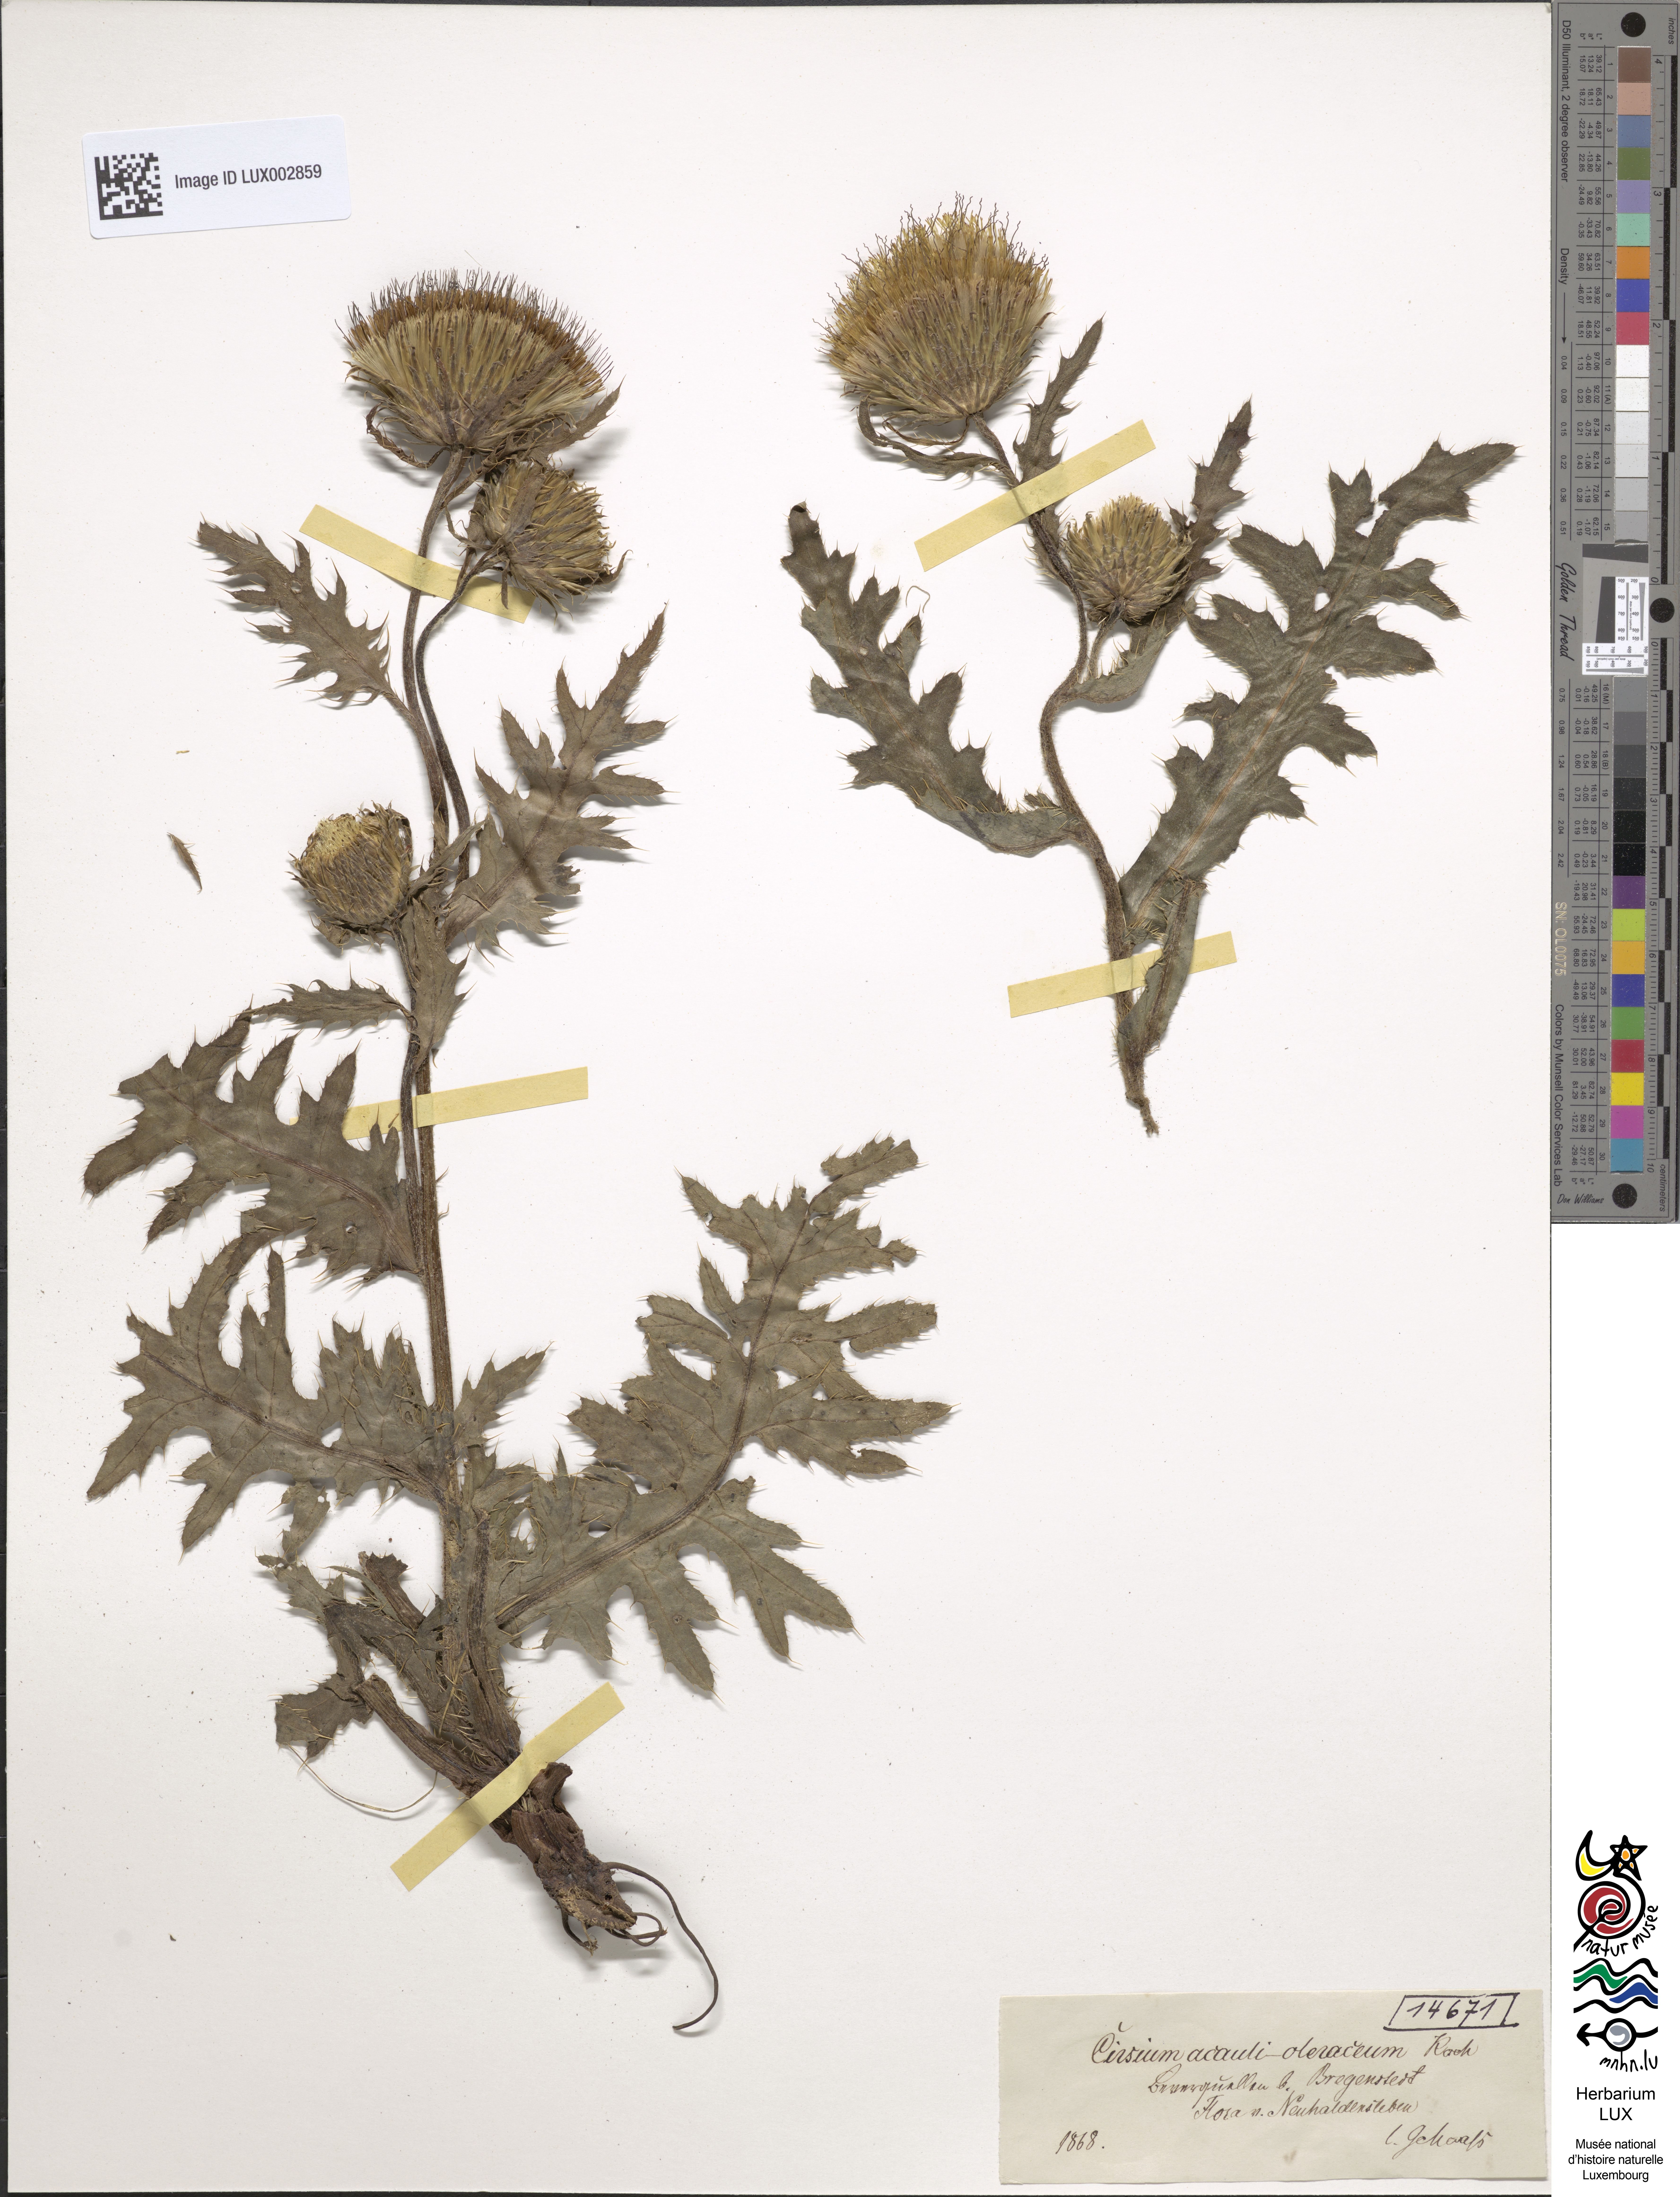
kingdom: Plantae
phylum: Tracheophyta
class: Magnoliopsida
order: Asterales
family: Asteraceae
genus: Cirsium
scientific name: Cirsium rigens
